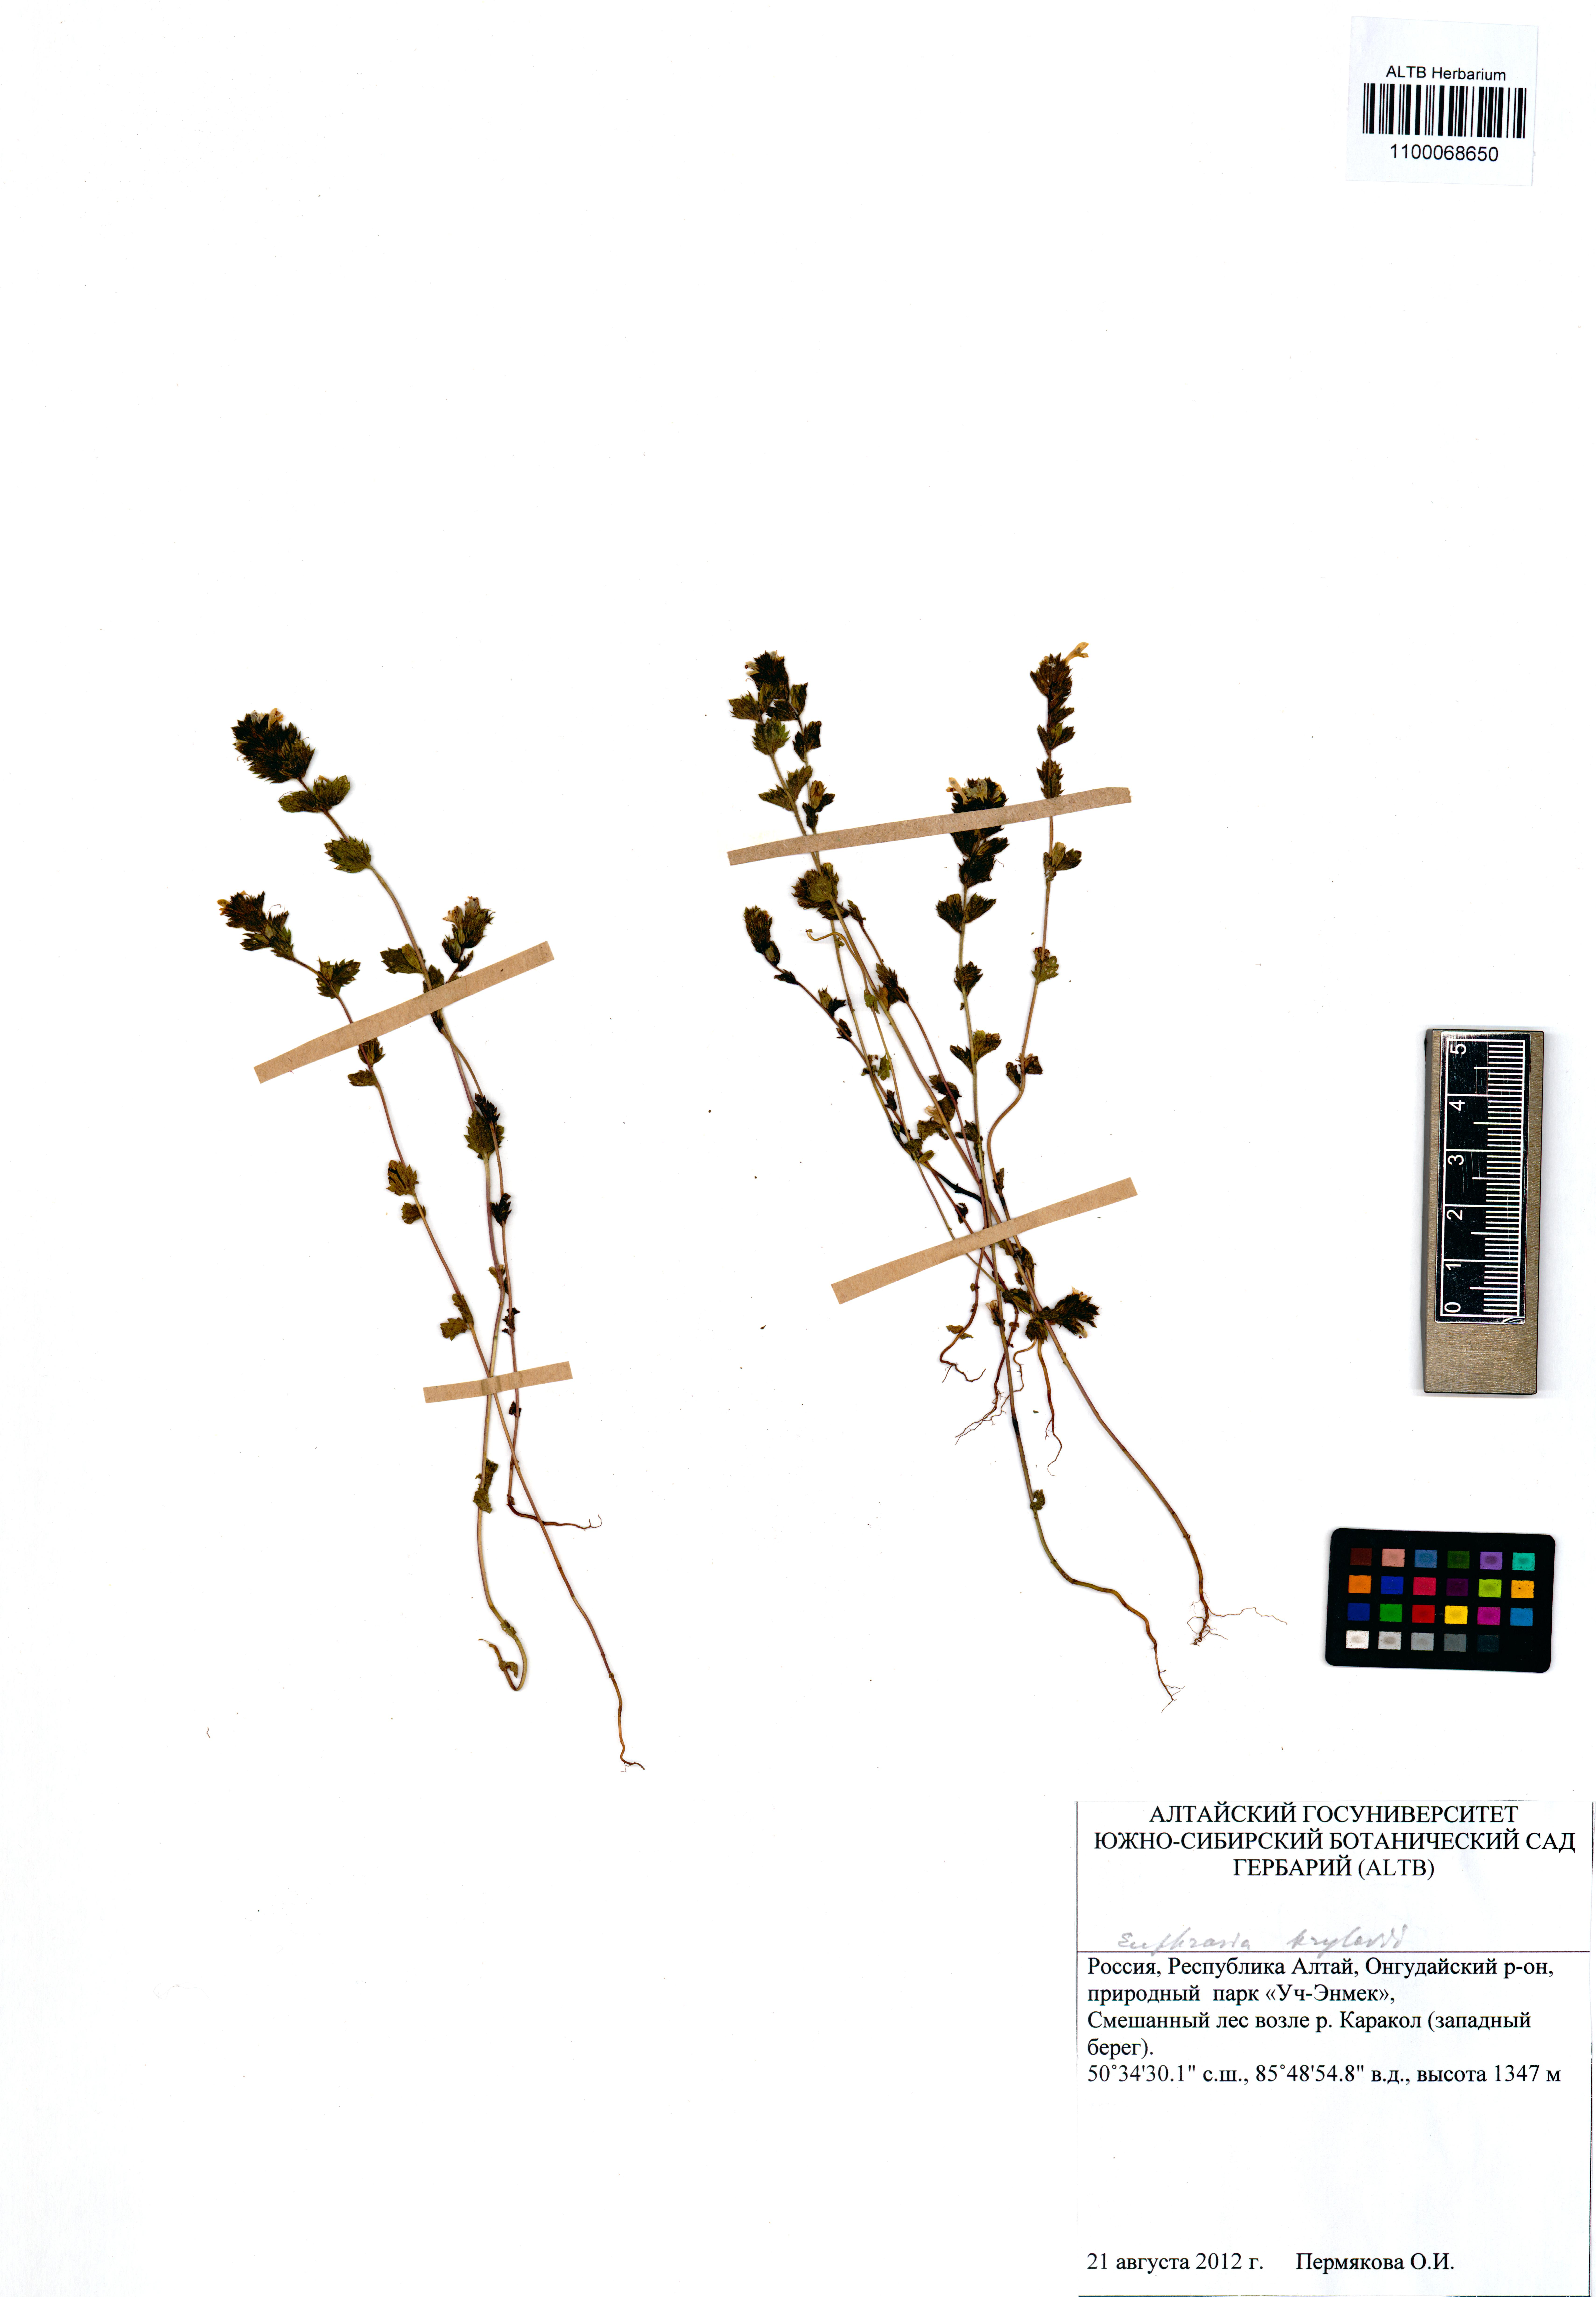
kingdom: Plantae
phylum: Tracheophyta
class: Magnoliopsida
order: Lamiales
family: Orobanchaceae
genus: Euphrasia
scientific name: Euphrasia krylovii
